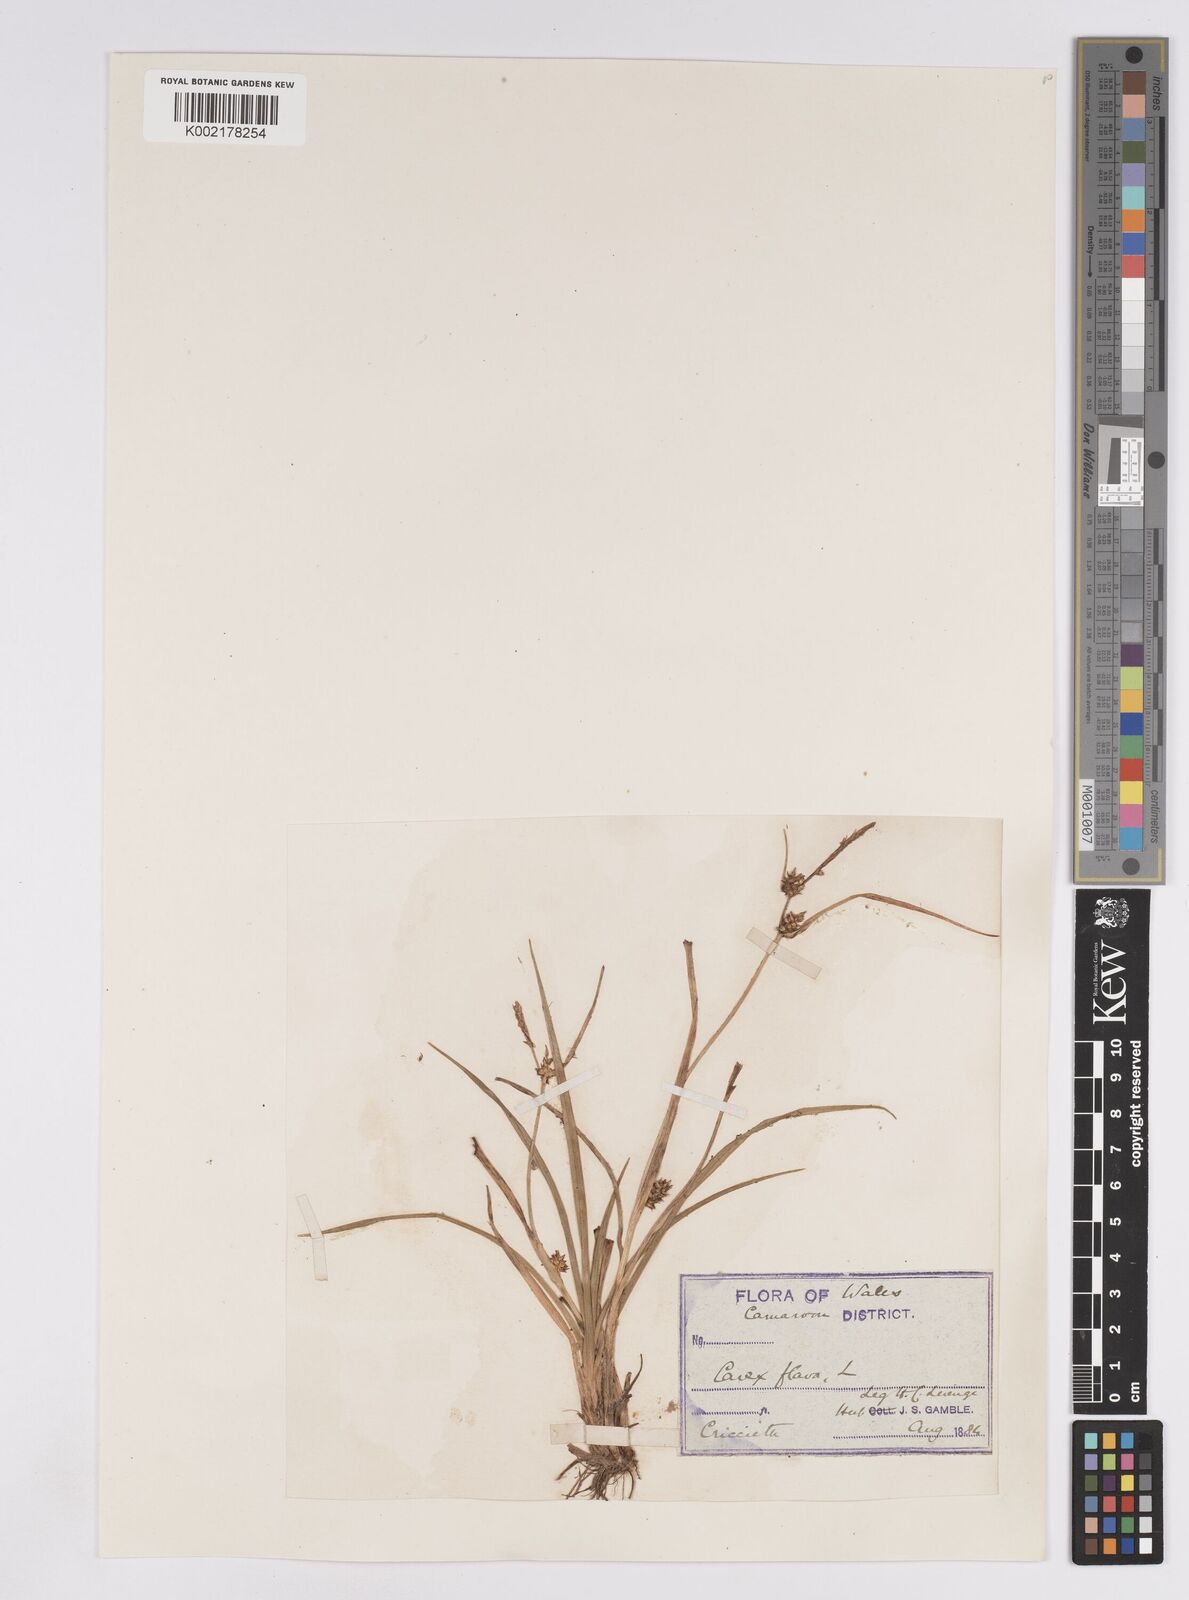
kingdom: Plantae
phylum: Tracheophyta
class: Liliopsida
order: Poales
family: Cyperaceae
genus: Carex
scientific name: Carex demissa
